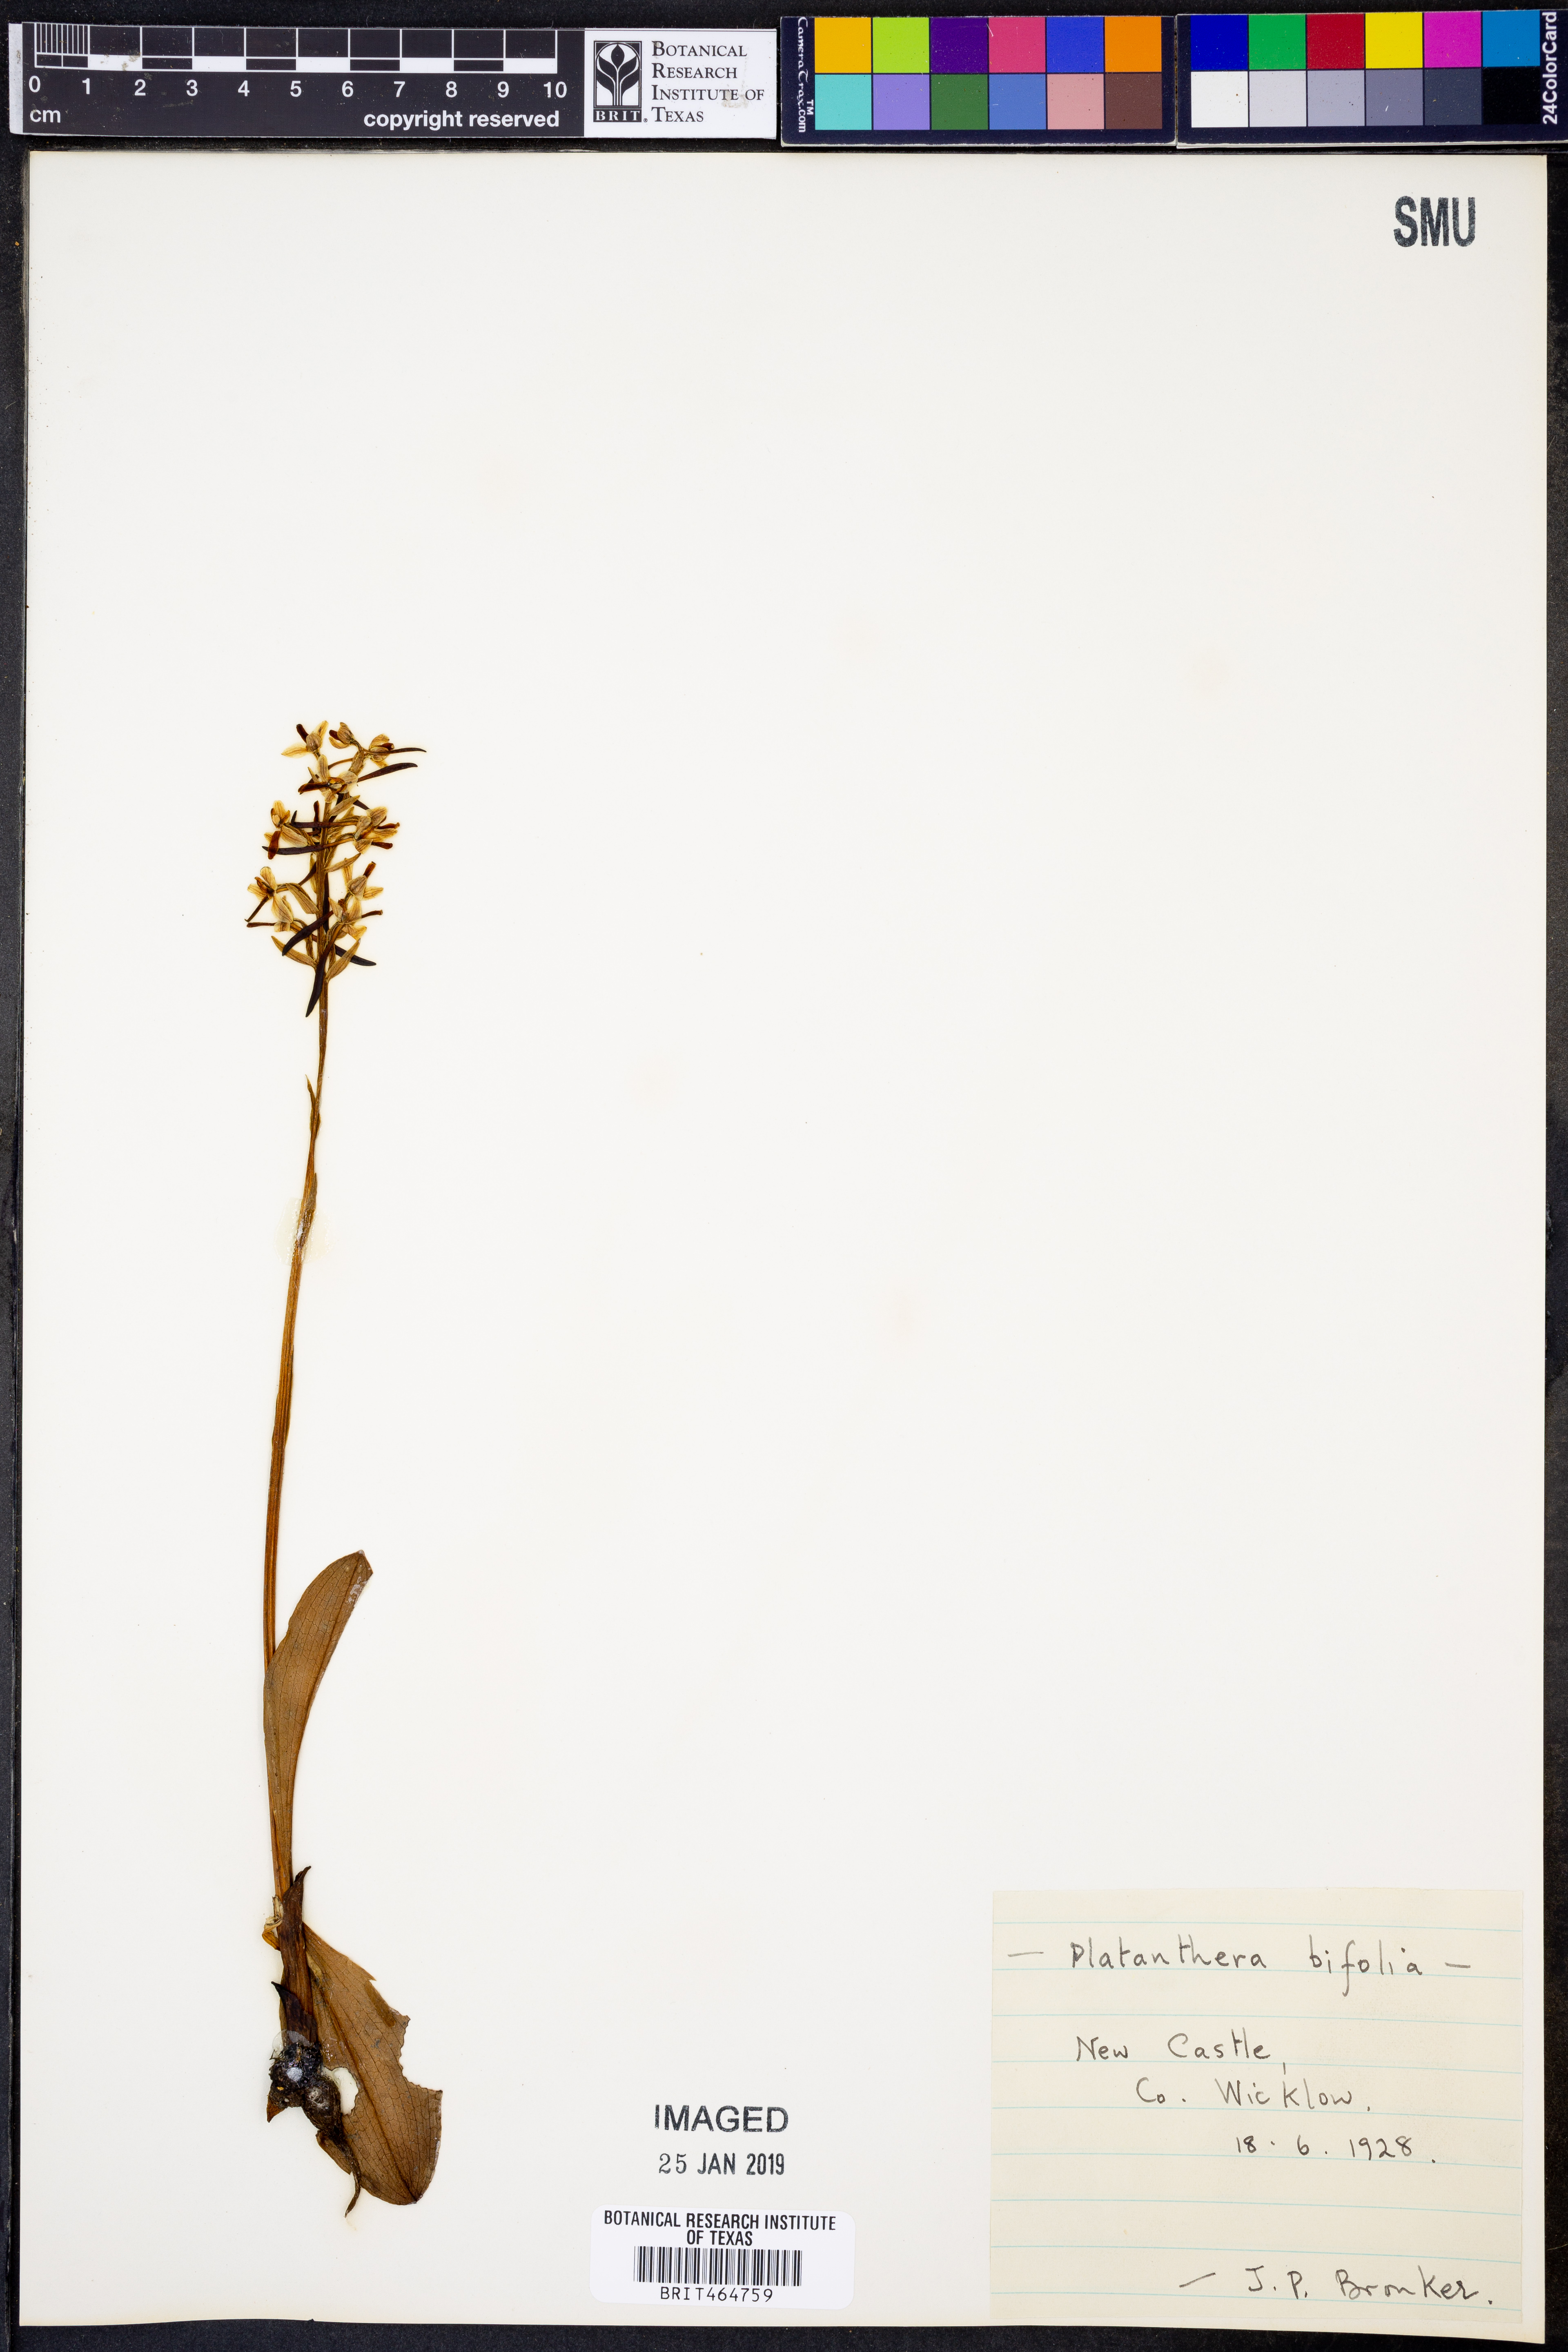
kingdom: Plantae
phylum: Tracheophyta
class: Liliopsida
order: Asparagales
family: Orchidaceae
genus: Platanthera
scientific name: Platanthera bifolia
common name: Lesser butterfly-orchid
